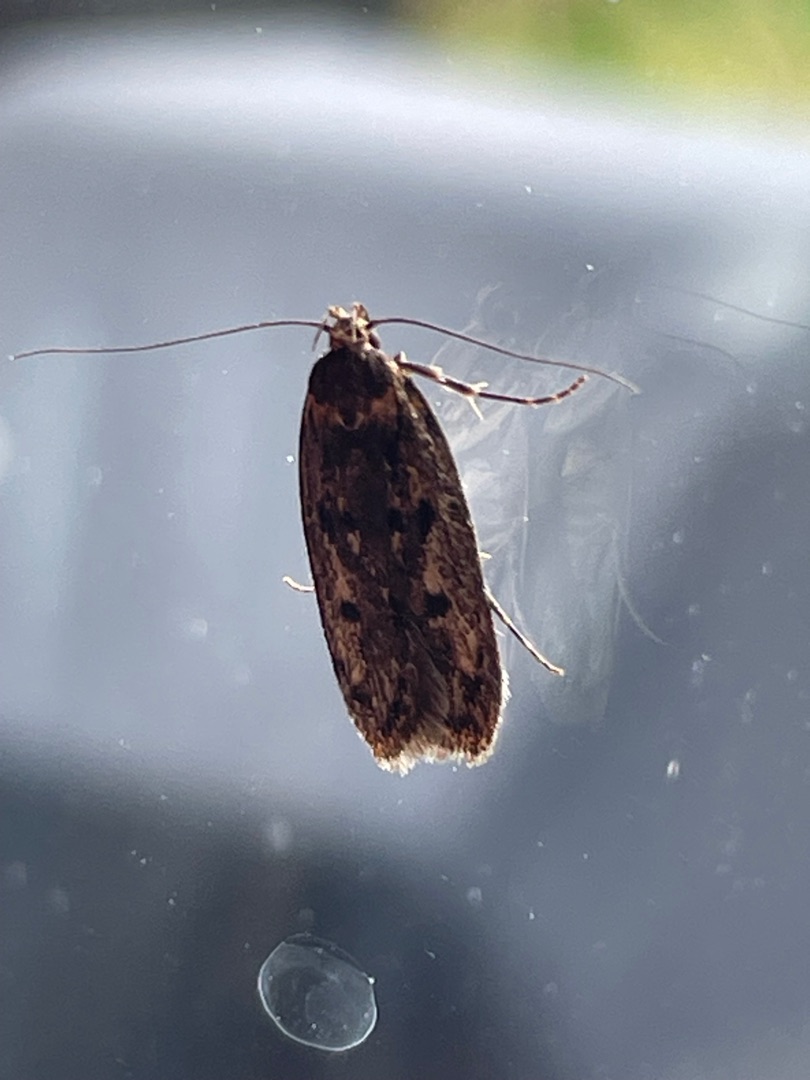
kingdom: Animalia
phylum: Arthropoda
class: Insecta
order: Lepidoptera
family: Oecophoridae
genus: Hofmannophila
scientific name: Hofmannophila pseudospretella
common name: Frømøl
